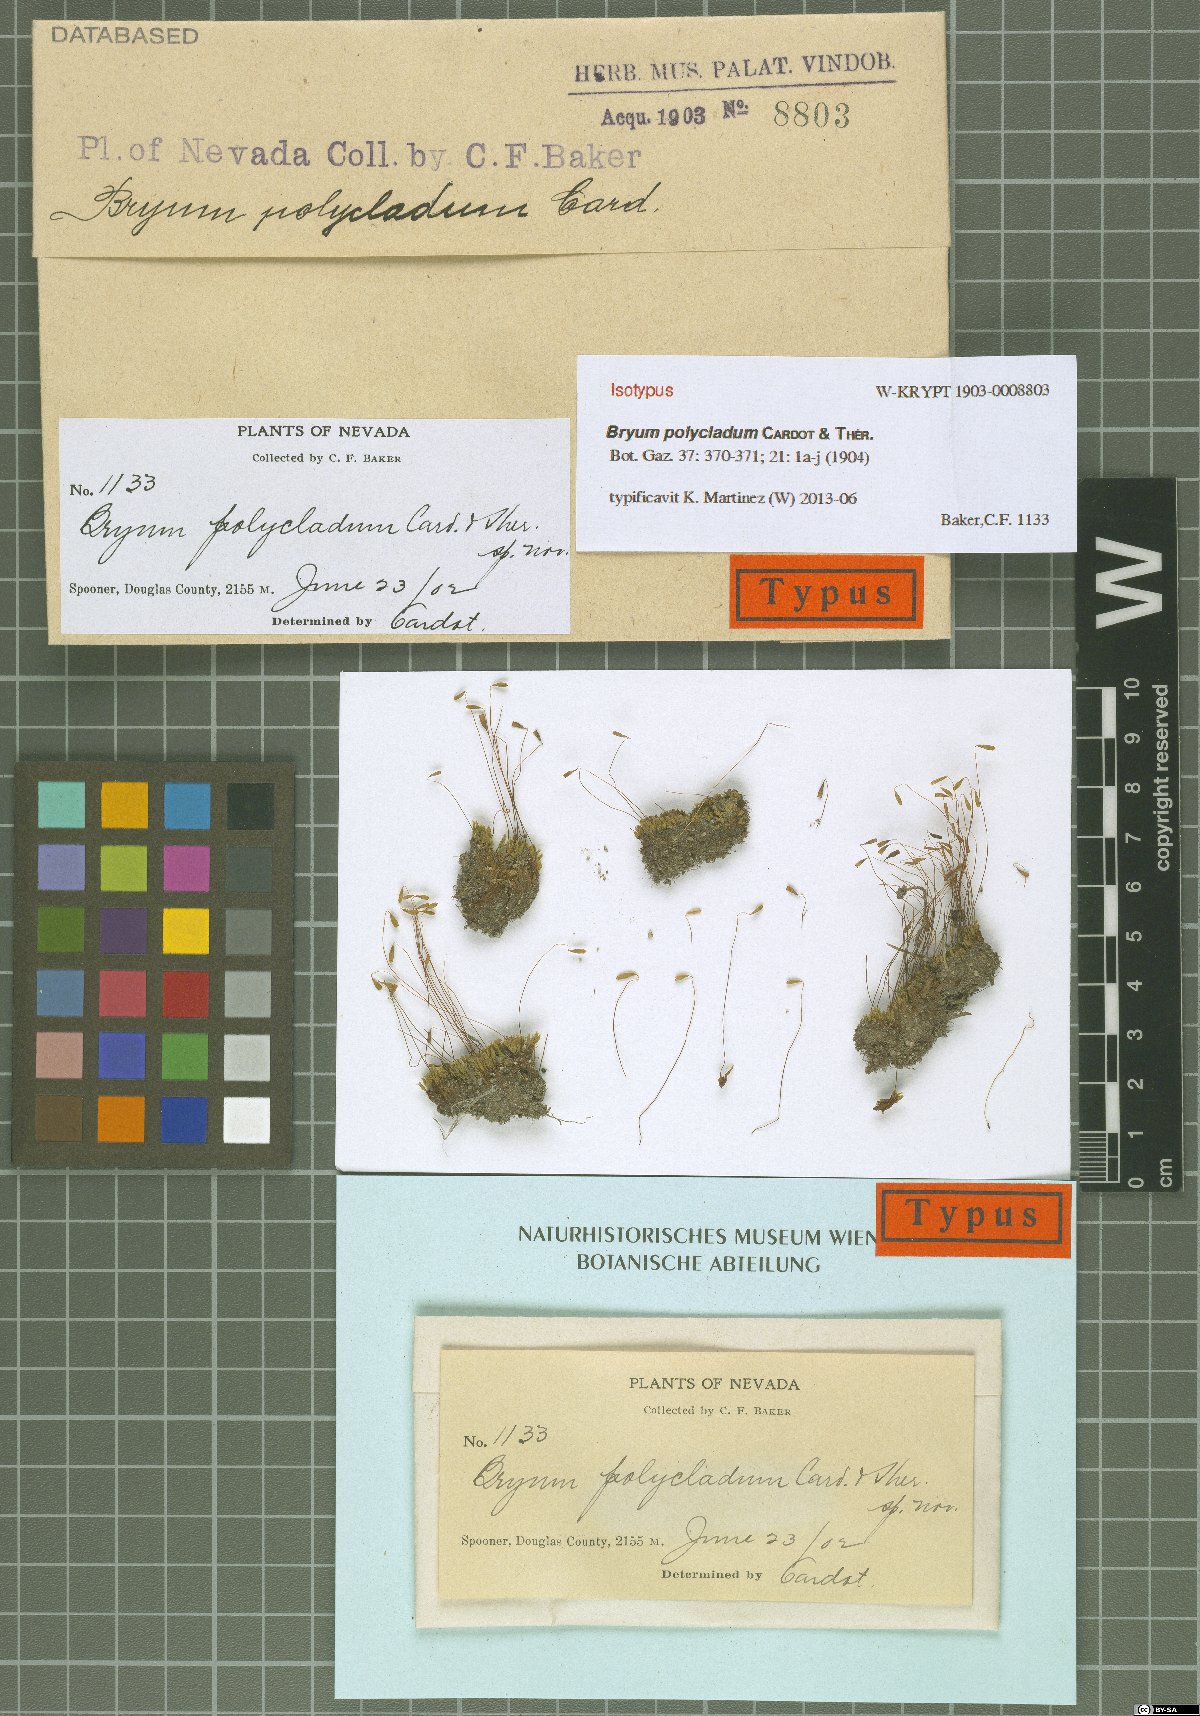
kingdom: Plantae
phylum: Bryophyta
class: Bryopsida
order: Bryales
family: Bryaceae
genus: Ptychostomum
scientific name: Ptychostomum lonchocaulon
